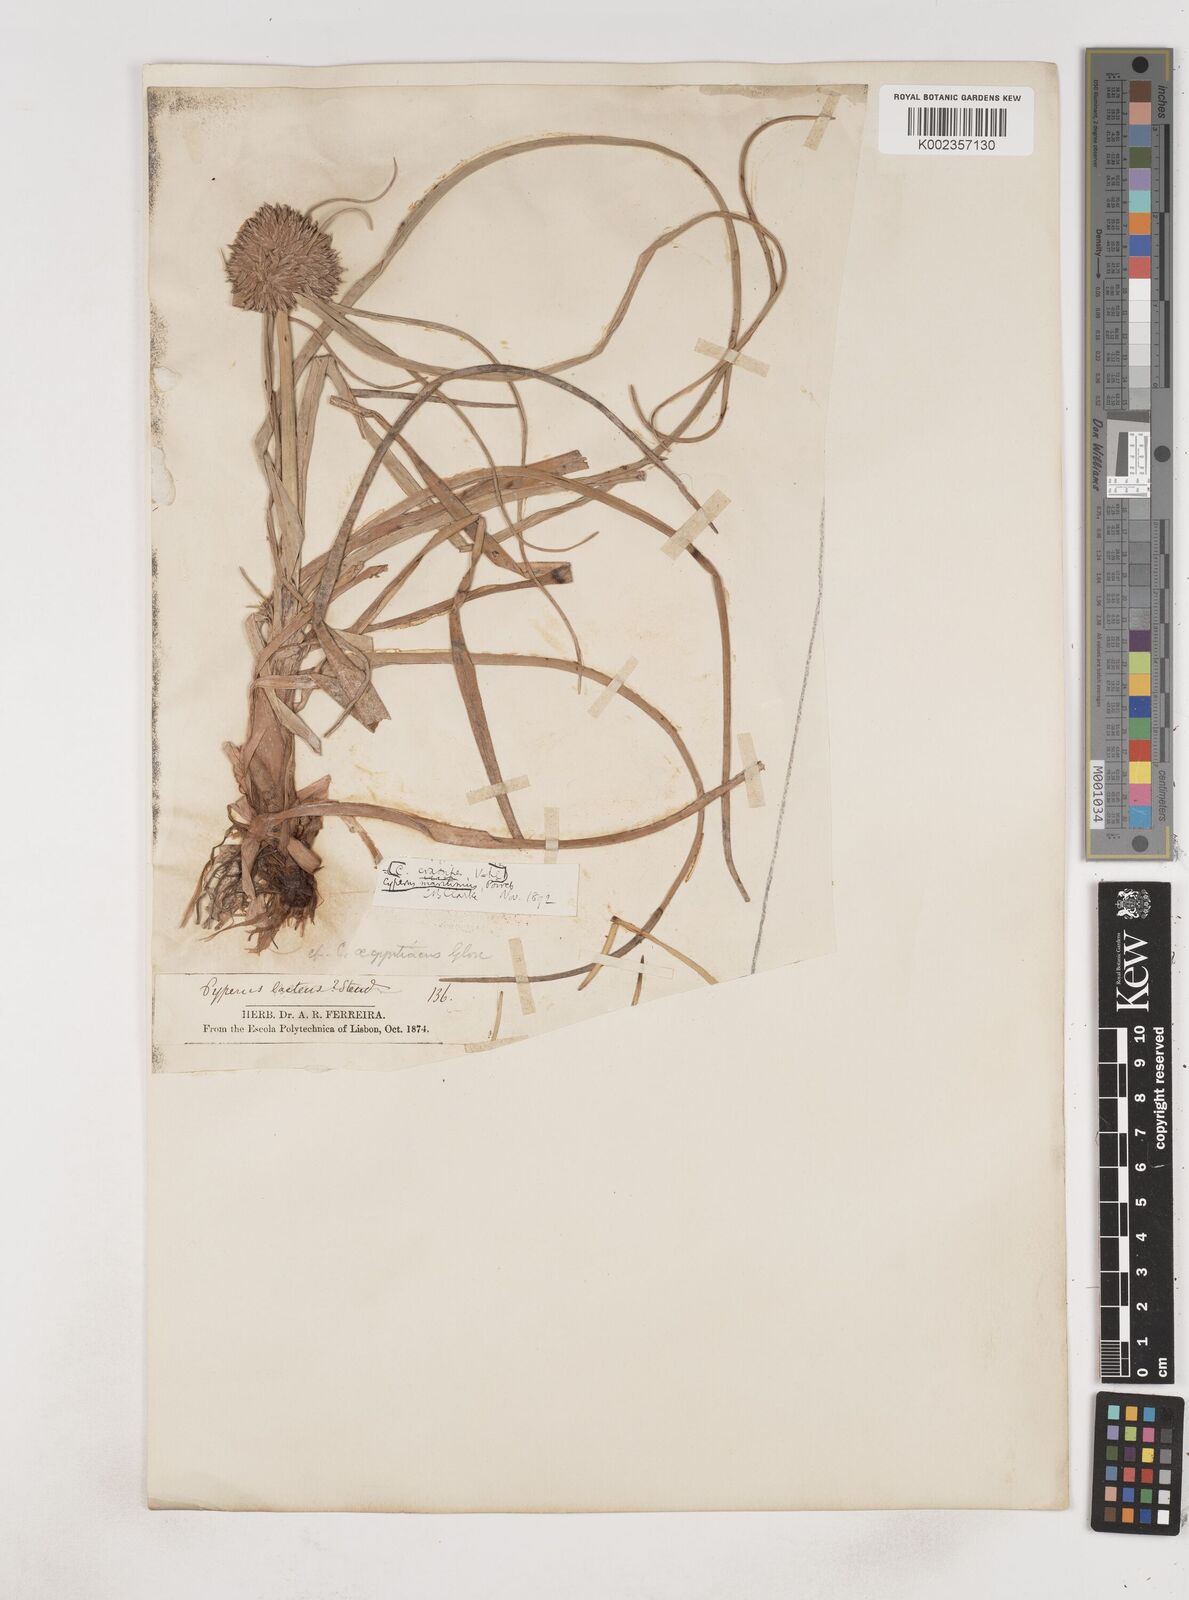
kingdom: Plantae
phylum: Tracheophyta
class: Liliopsida
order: Poales
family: Cyperaceae
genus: Cyperus
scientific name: Cyperus crassipes
